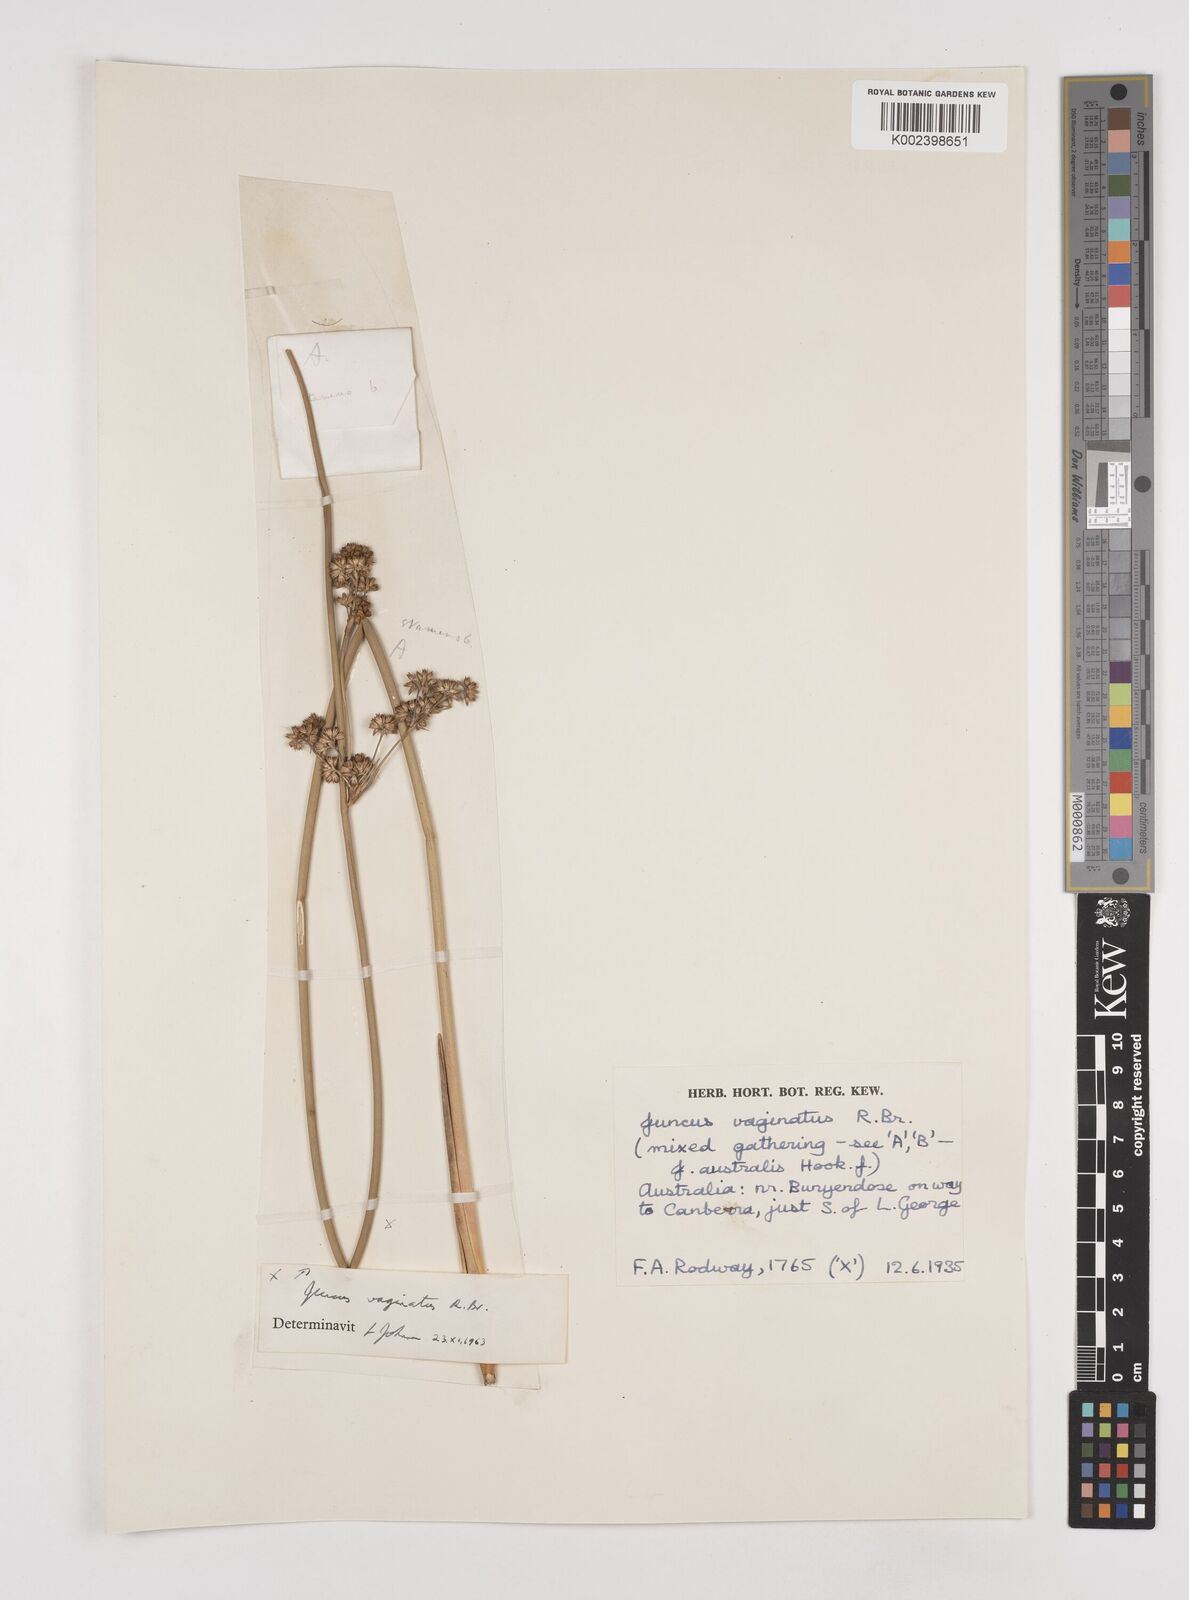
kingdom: Plantae
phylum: Tracheophyta
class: Liliopsida
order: Poales
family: Juncaceae
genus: Juncus
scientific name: Juncus vaginatus
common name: Clustered rush
